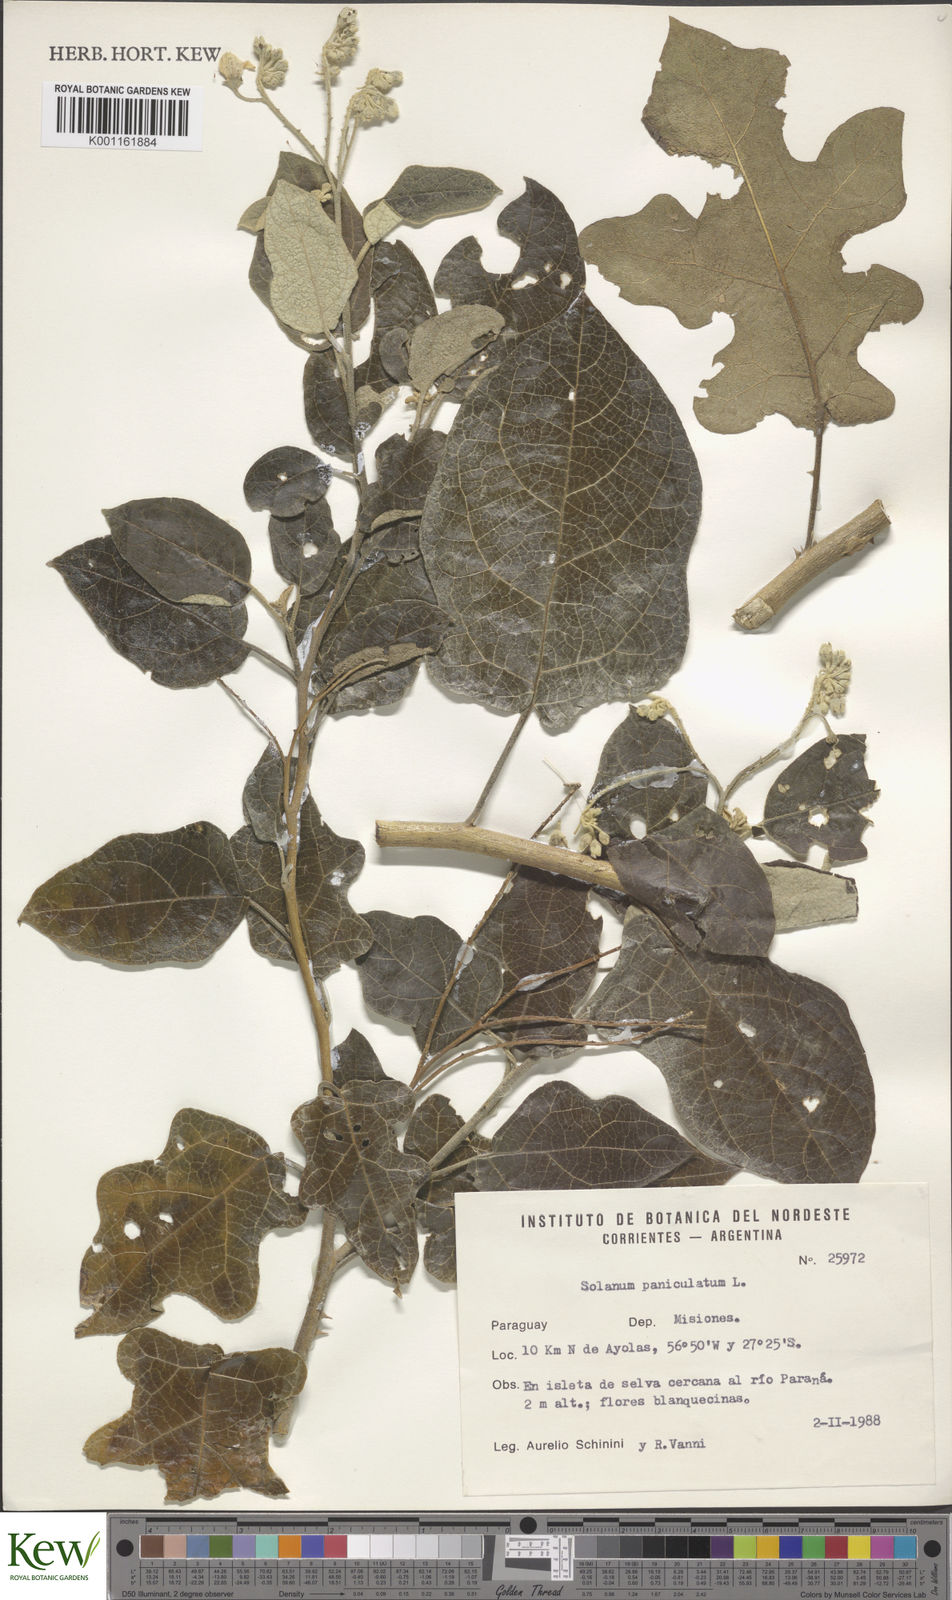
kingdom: Plantae
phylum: Tracheophyta
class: Magnoliopsida
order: Solanales
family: Solanaceae
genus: Solanum
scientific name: Solanum paniculatum
